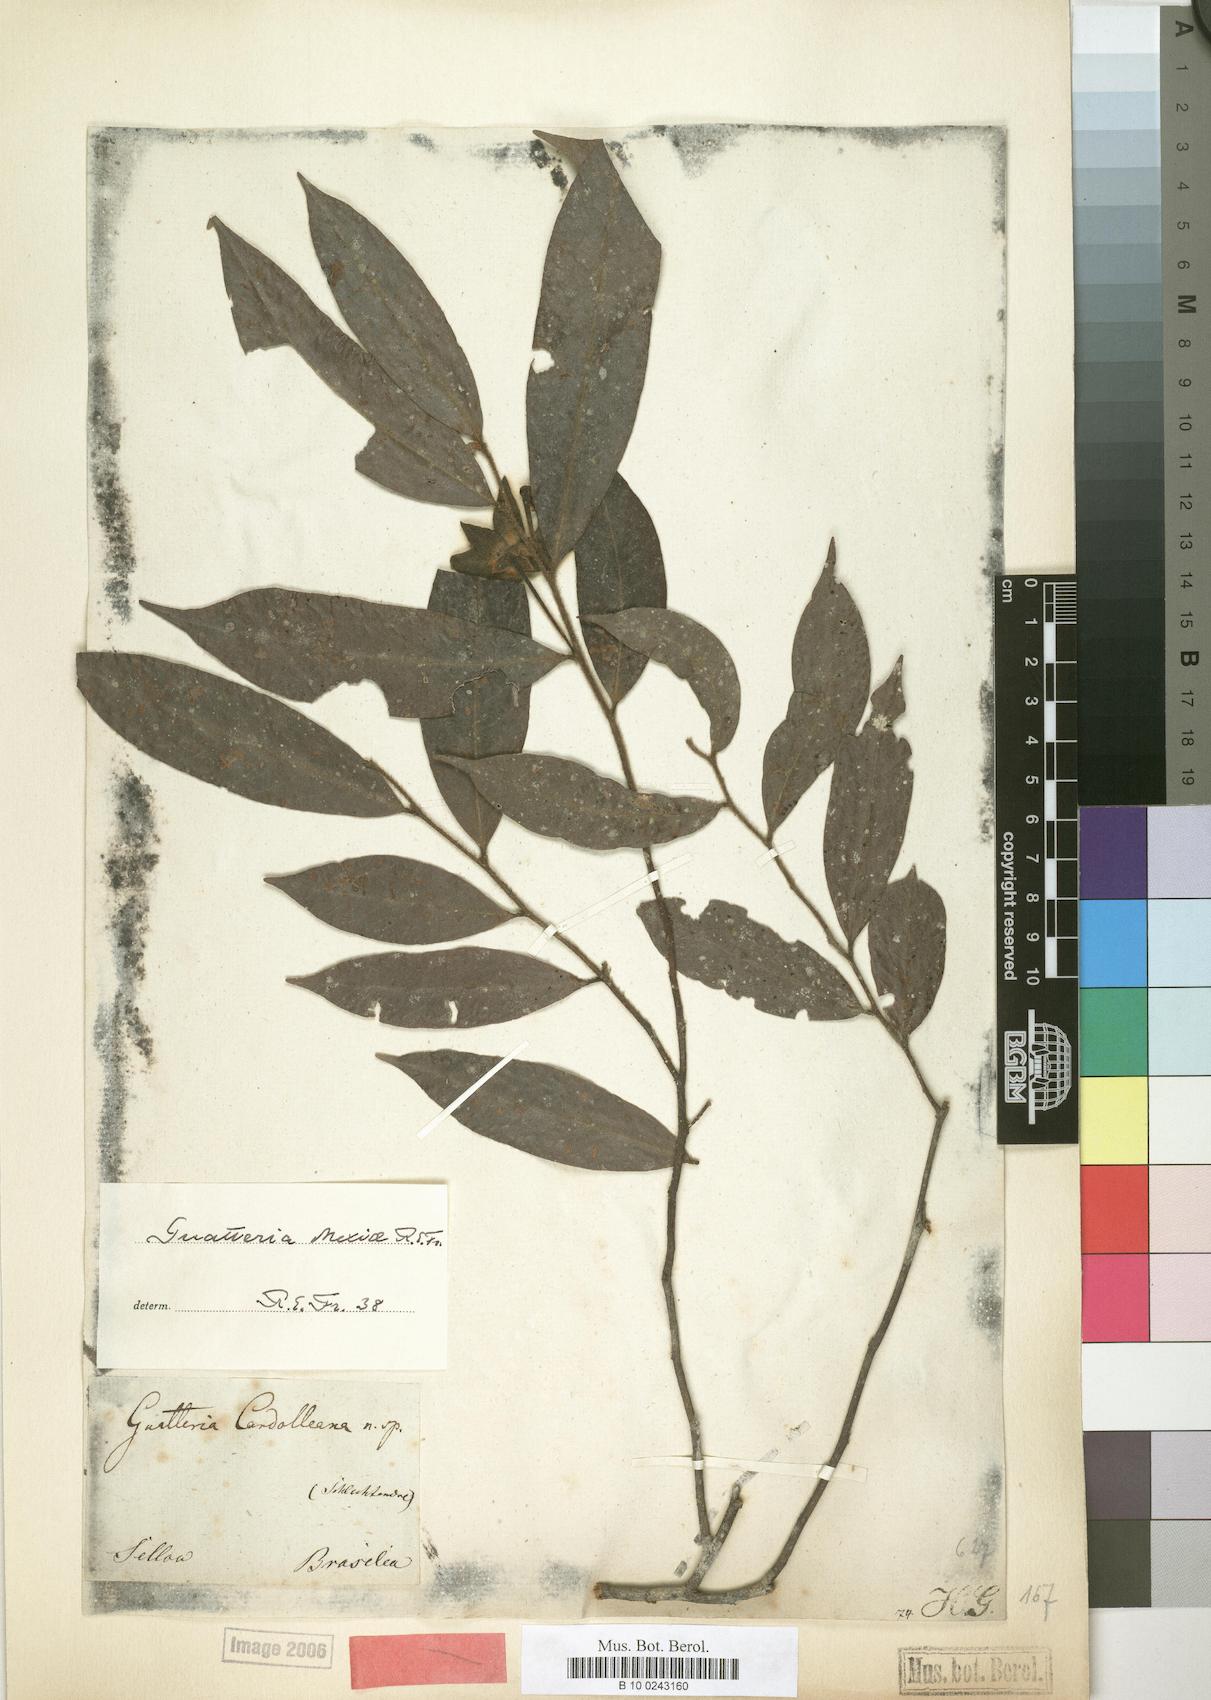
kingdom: Plantae
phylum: Tracheophyta
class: Magnoliopsida
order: Magnoliales
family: Annonaceae
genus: Guatteria
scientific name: Guatteria sellowiana
